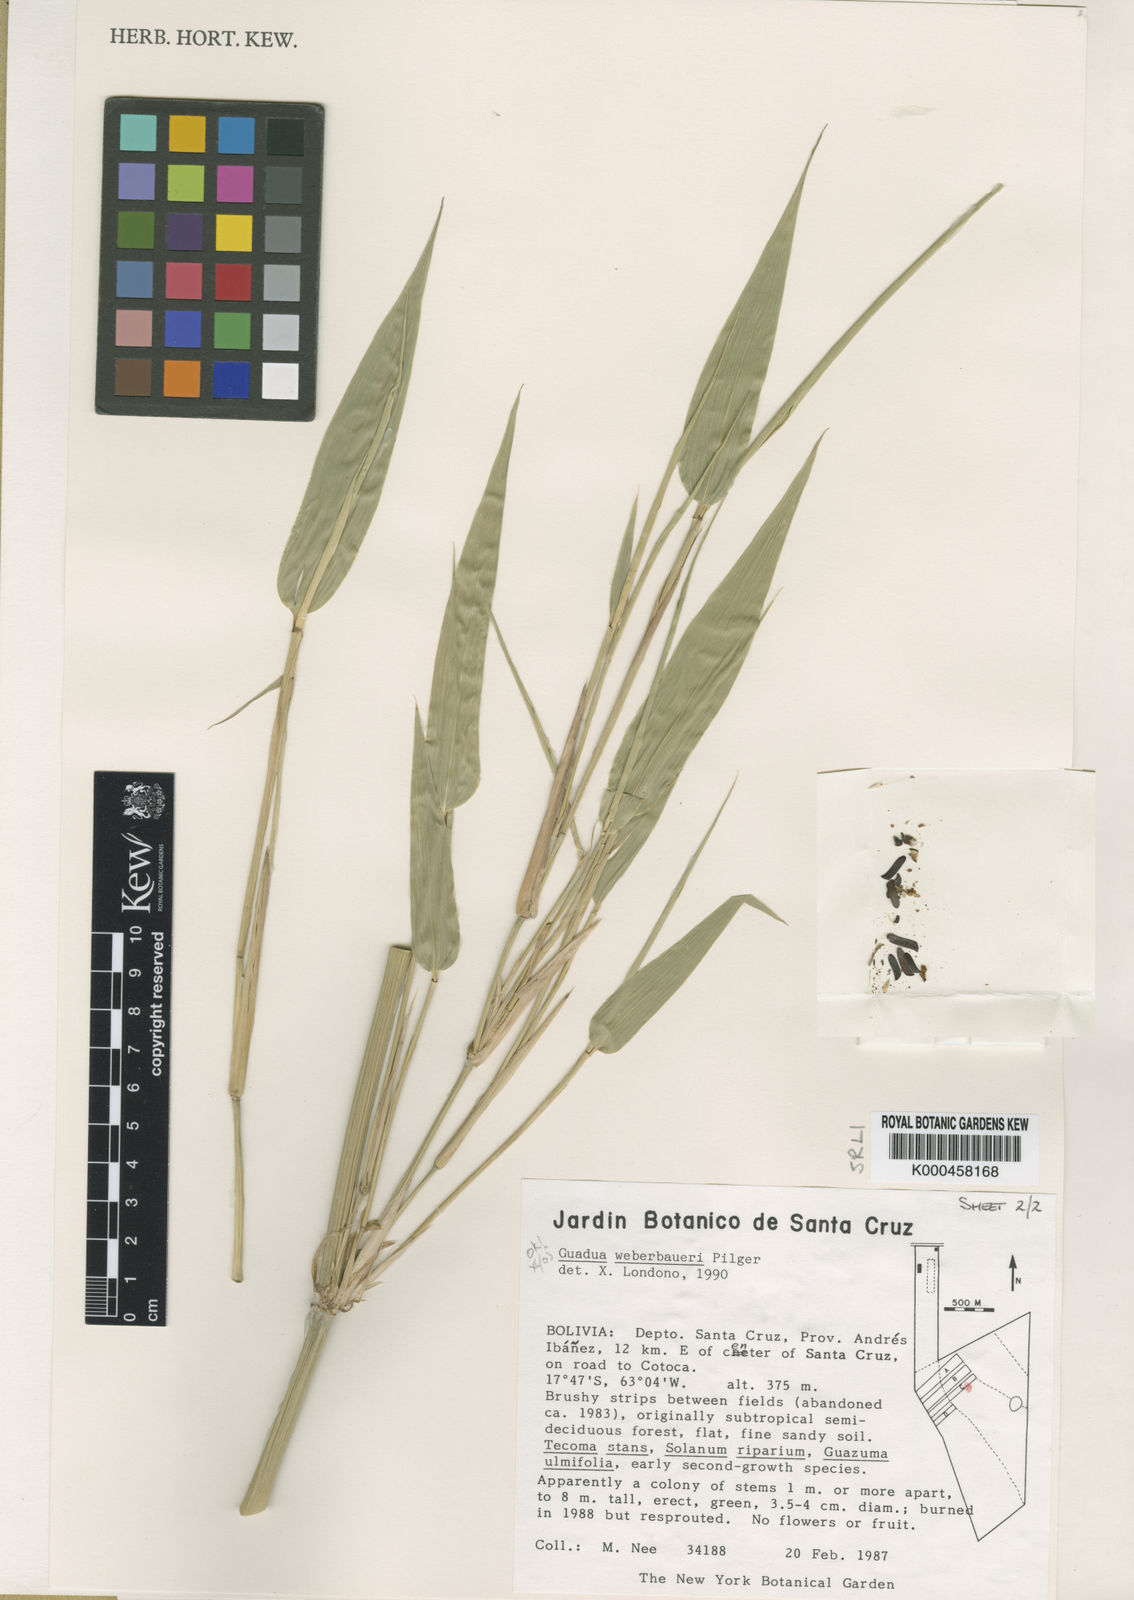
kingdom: Plantae
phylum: Tracheophyta
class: Liliopsida
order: Poales
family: Poaceae
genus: Guadua
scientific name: Guadua weberbaueri
